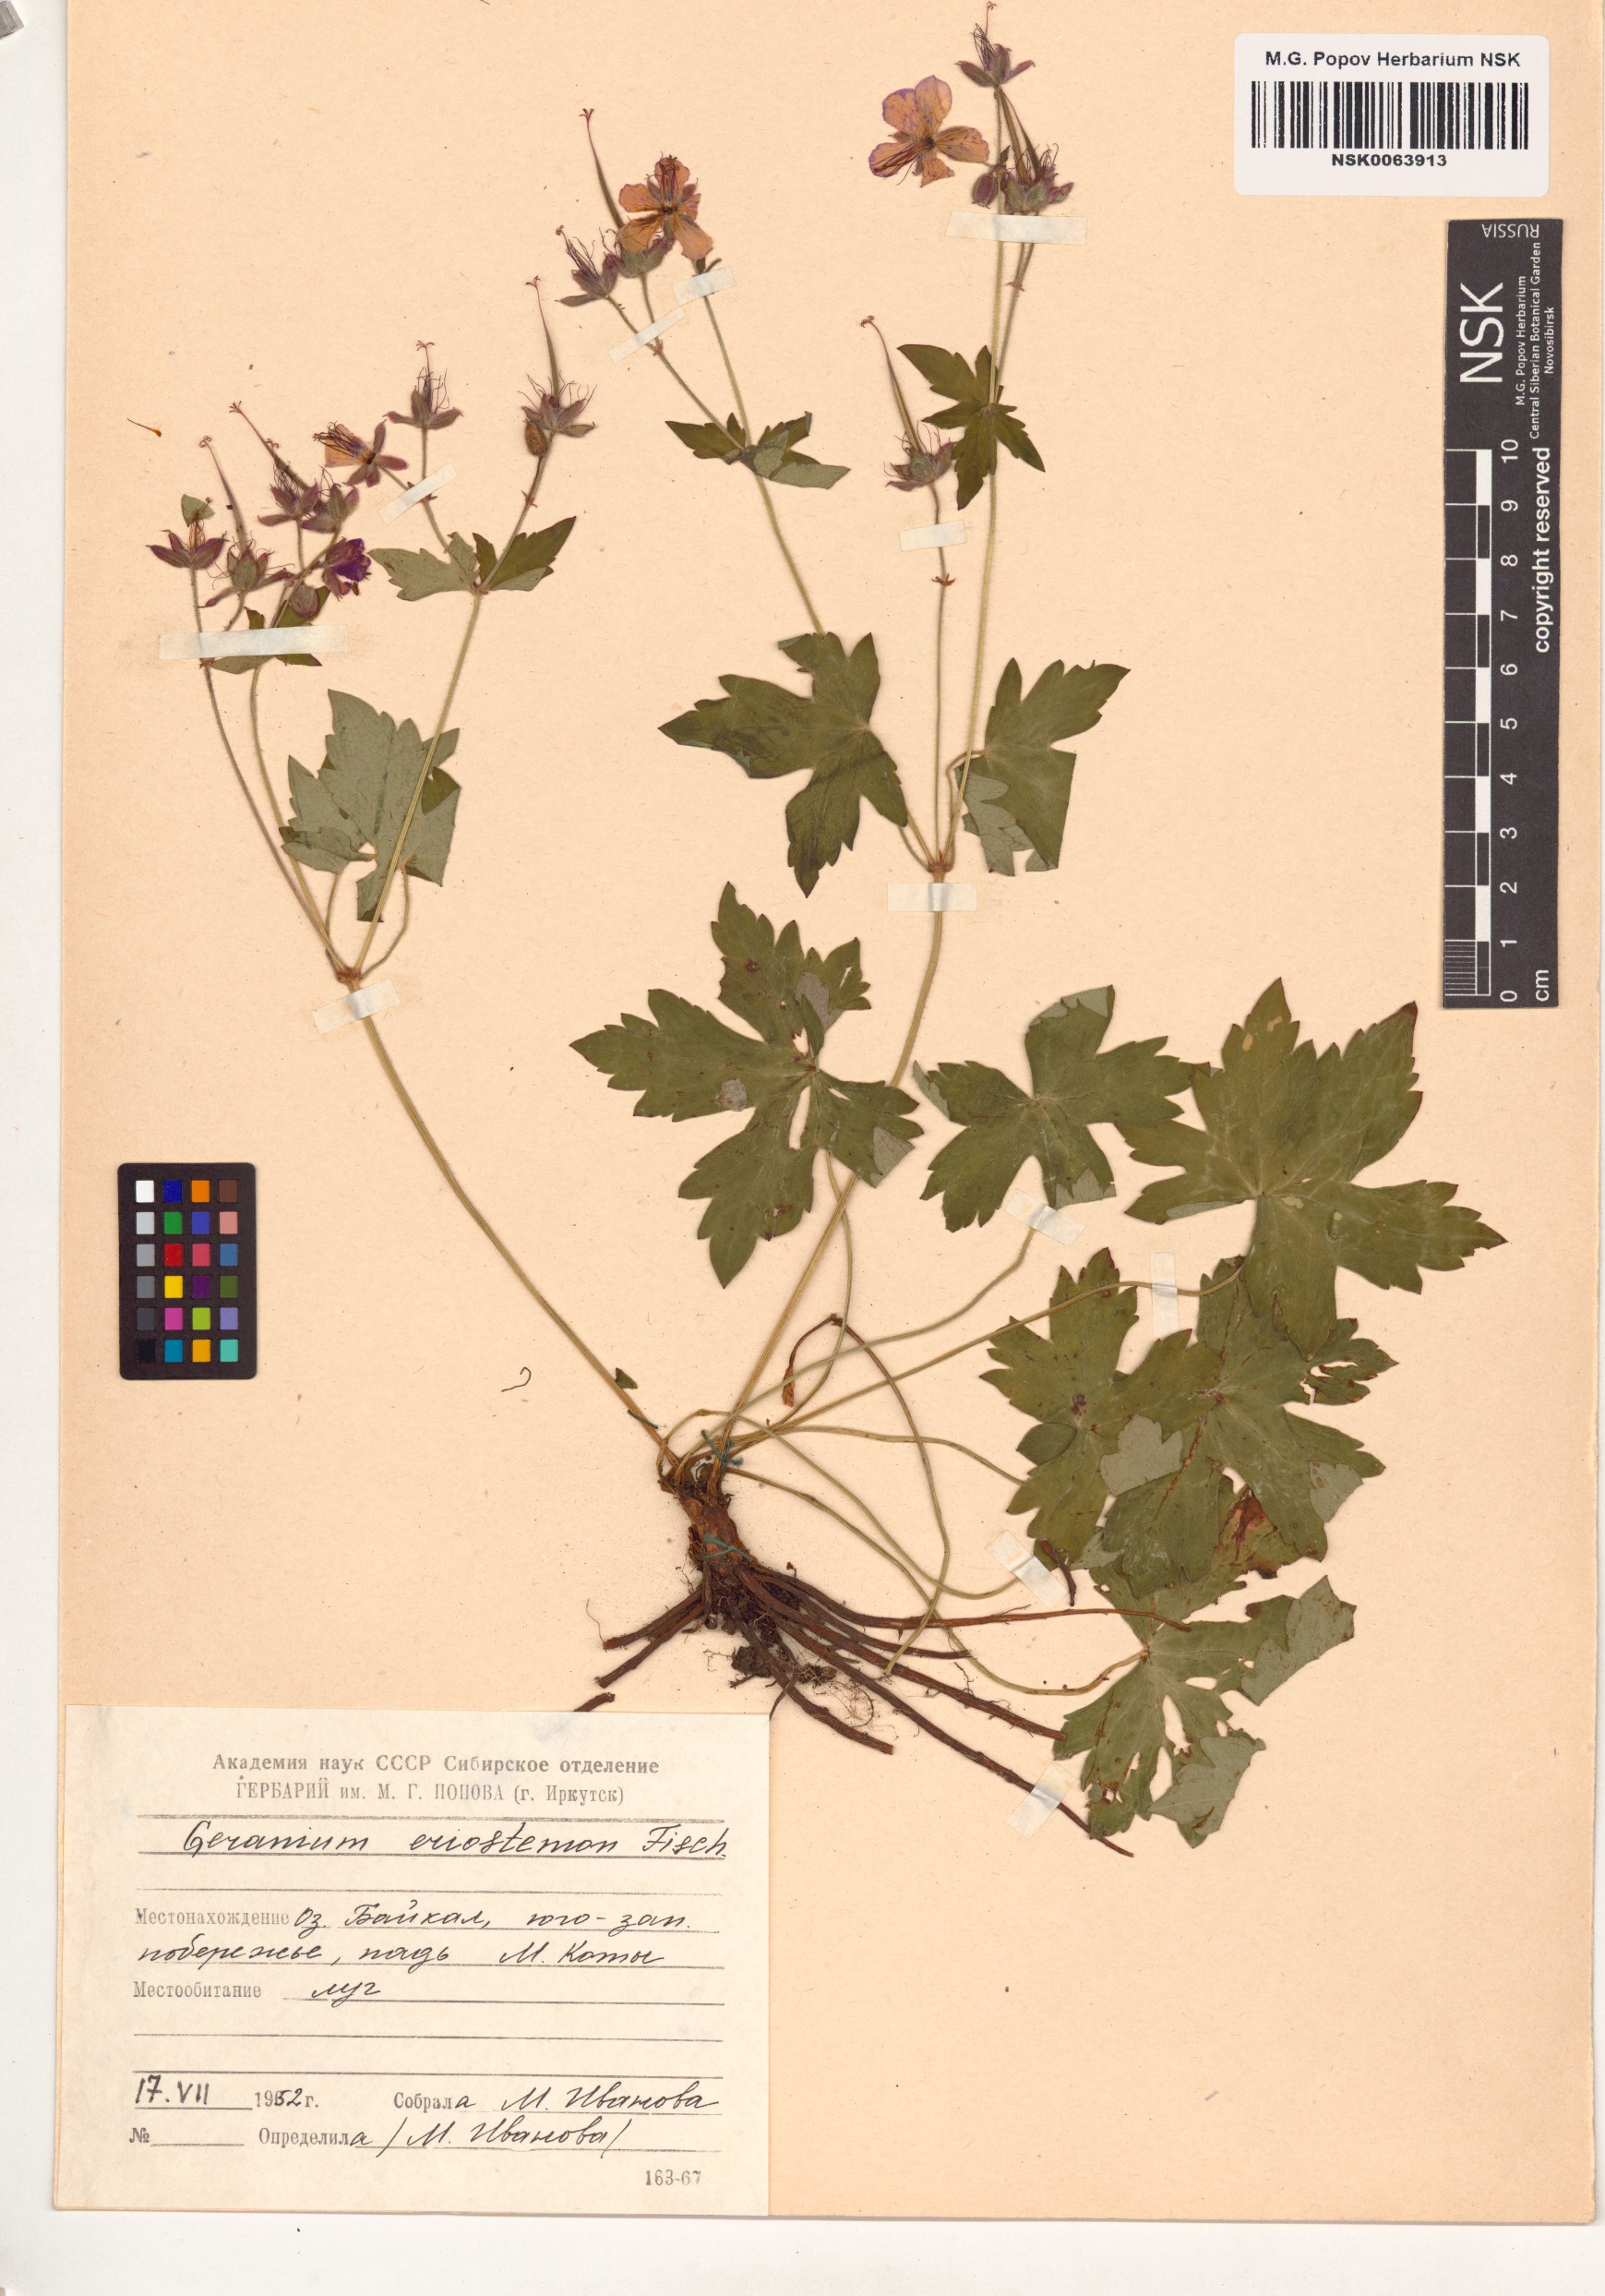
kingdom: Plantae
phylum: Tracheophyta
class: Magnoliopsida
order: Geraniales
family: Geraniaceae
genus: Geranium
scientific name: Geranium platyanthum
